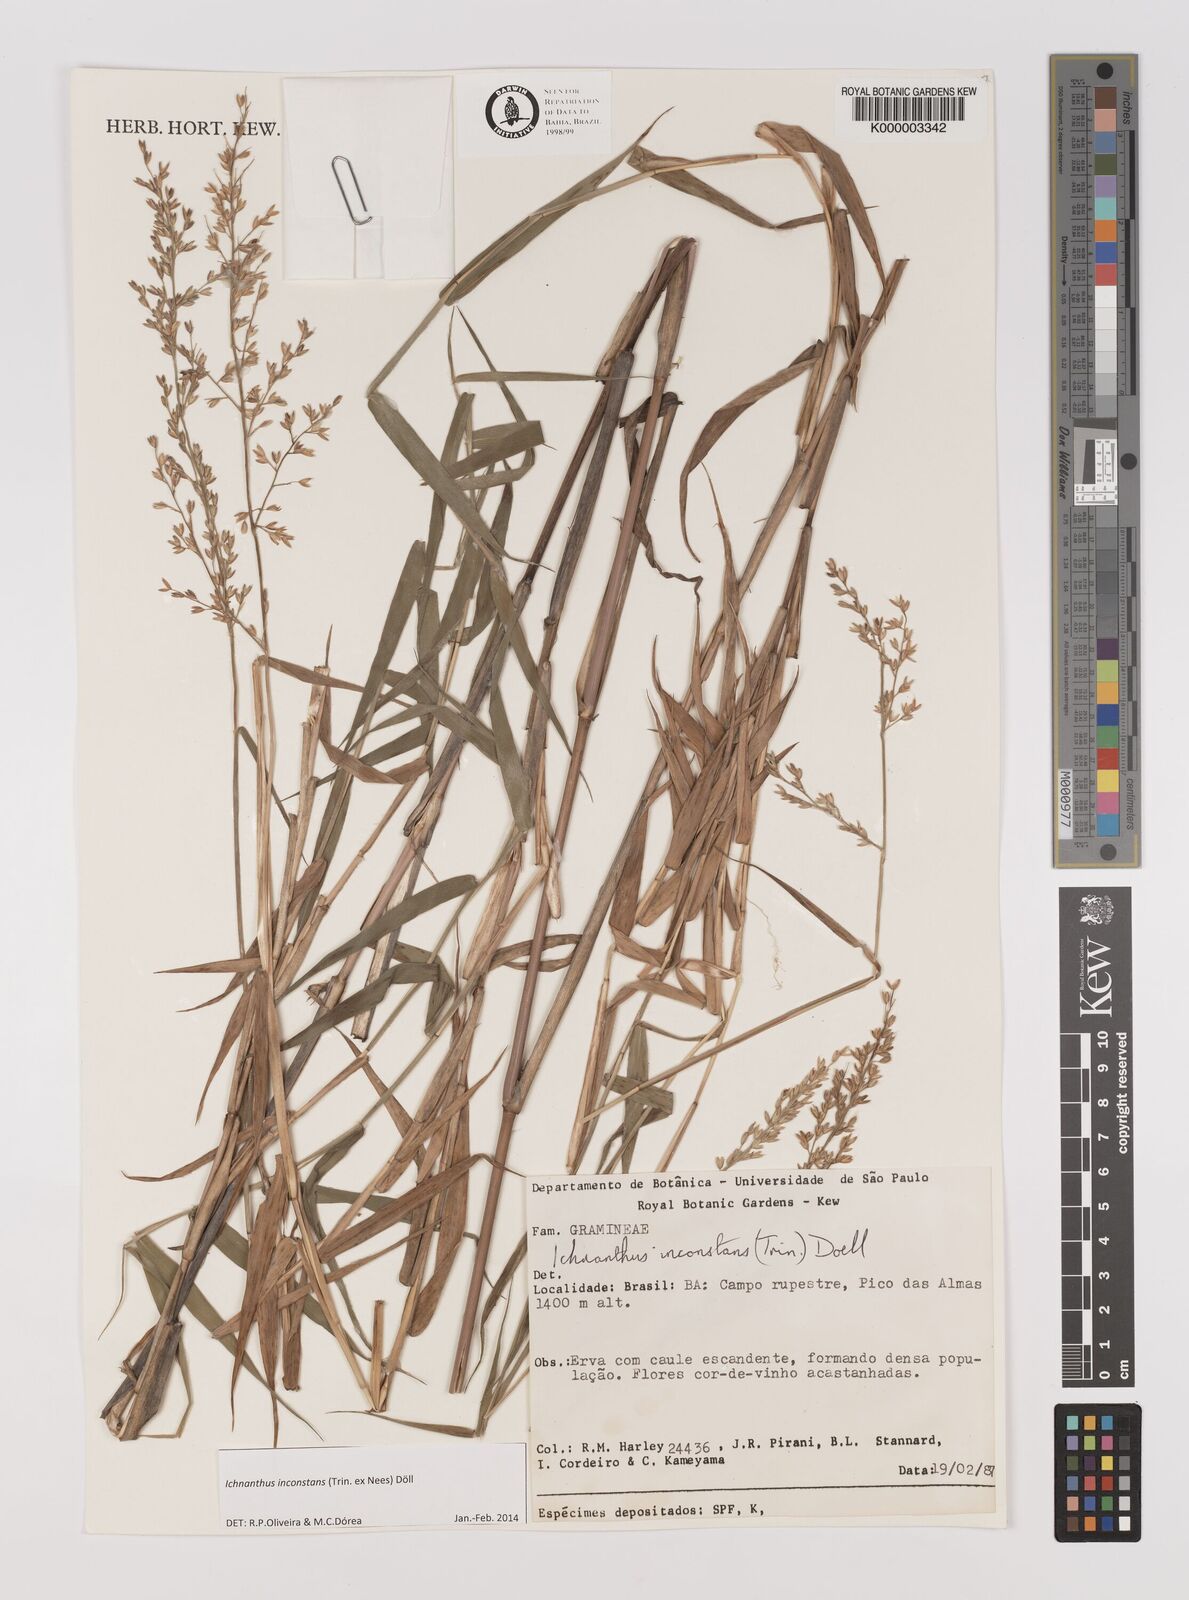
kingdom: Plantae
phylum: Tracheophyta
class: Liliopsida
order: Poales
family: Poaceae
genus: Ichnanthus
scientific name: Ichnanthus
